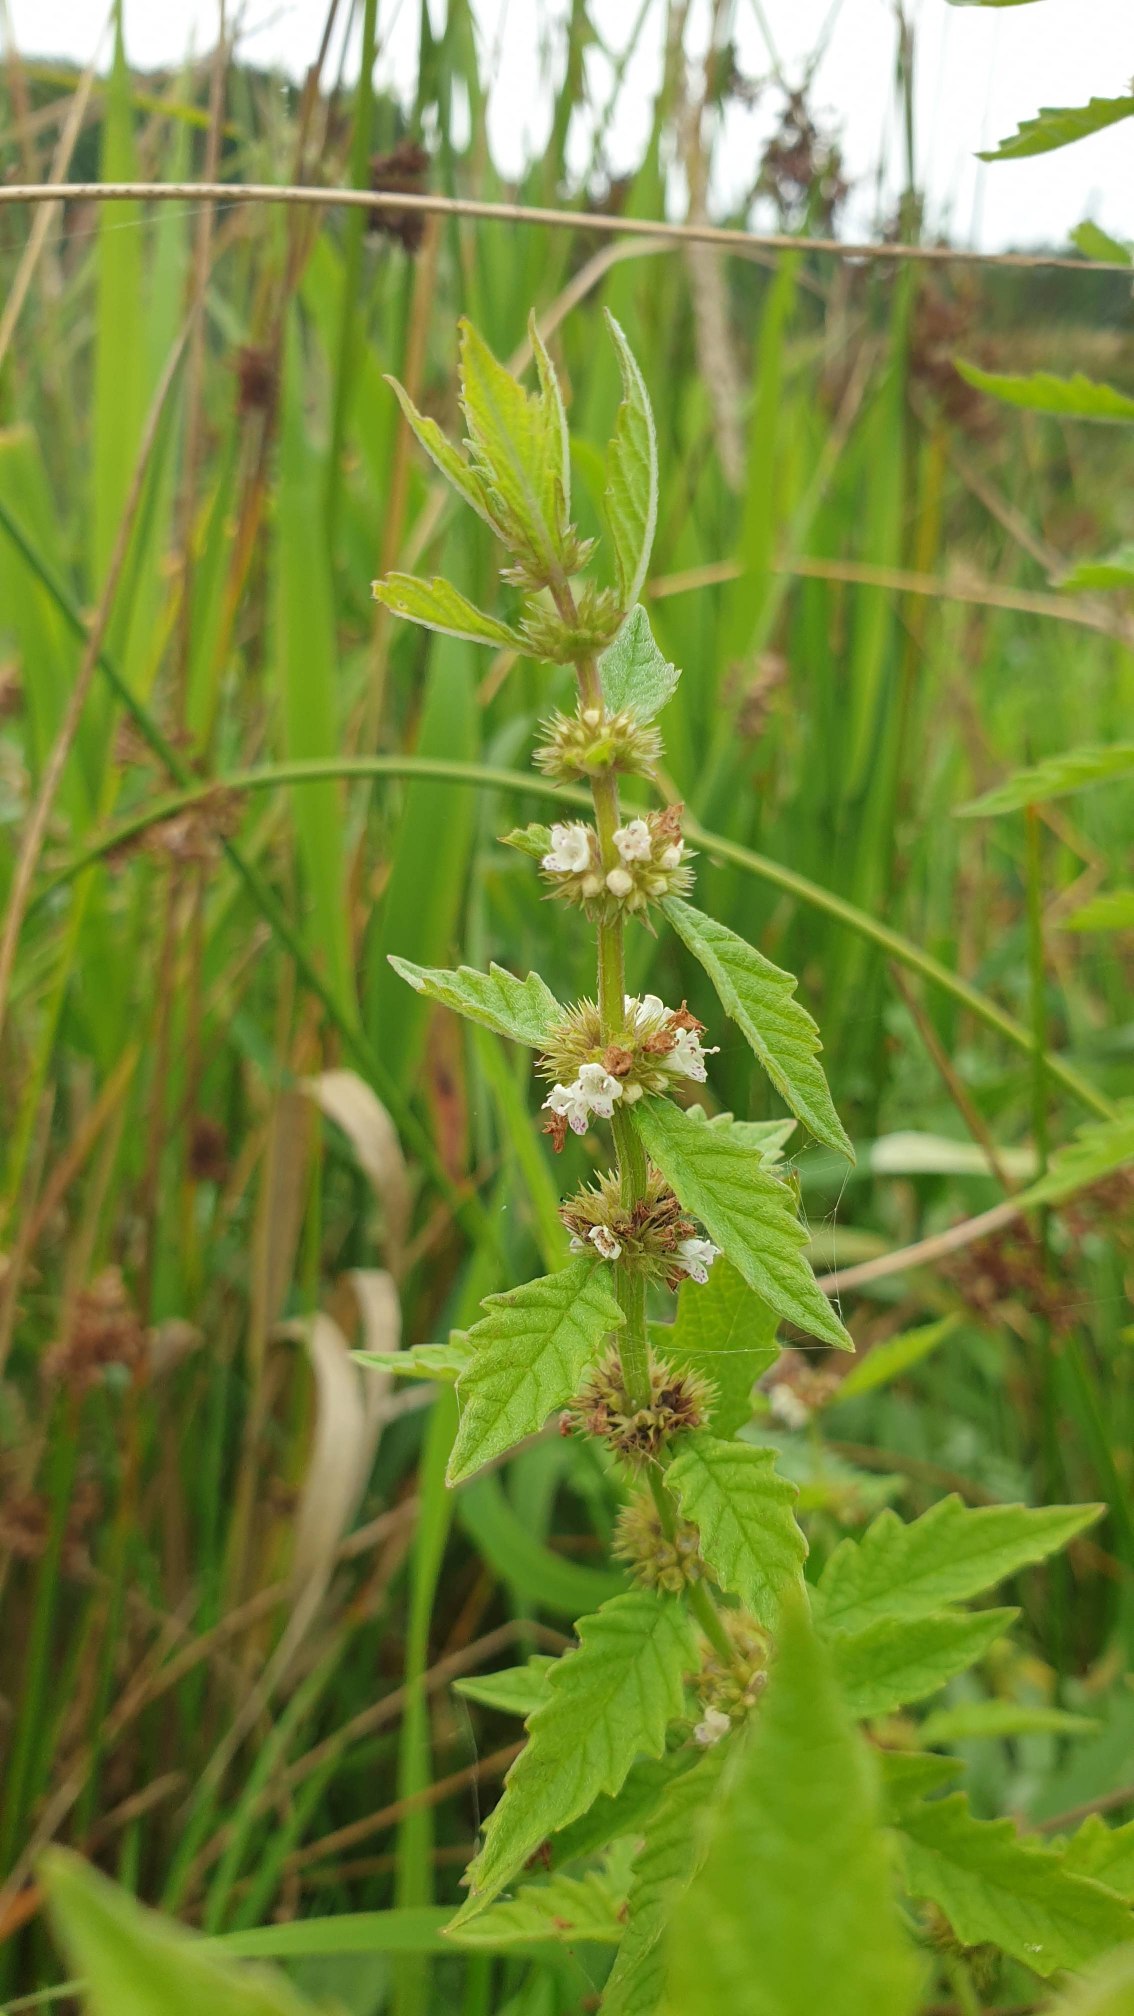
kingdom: Plantae
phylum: Tracheophyta
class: Magnoliopsida
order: Lamiales
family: Lamiaceae
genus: Lycopus
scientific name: Lycopus europaeus
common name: Sværtevæld
